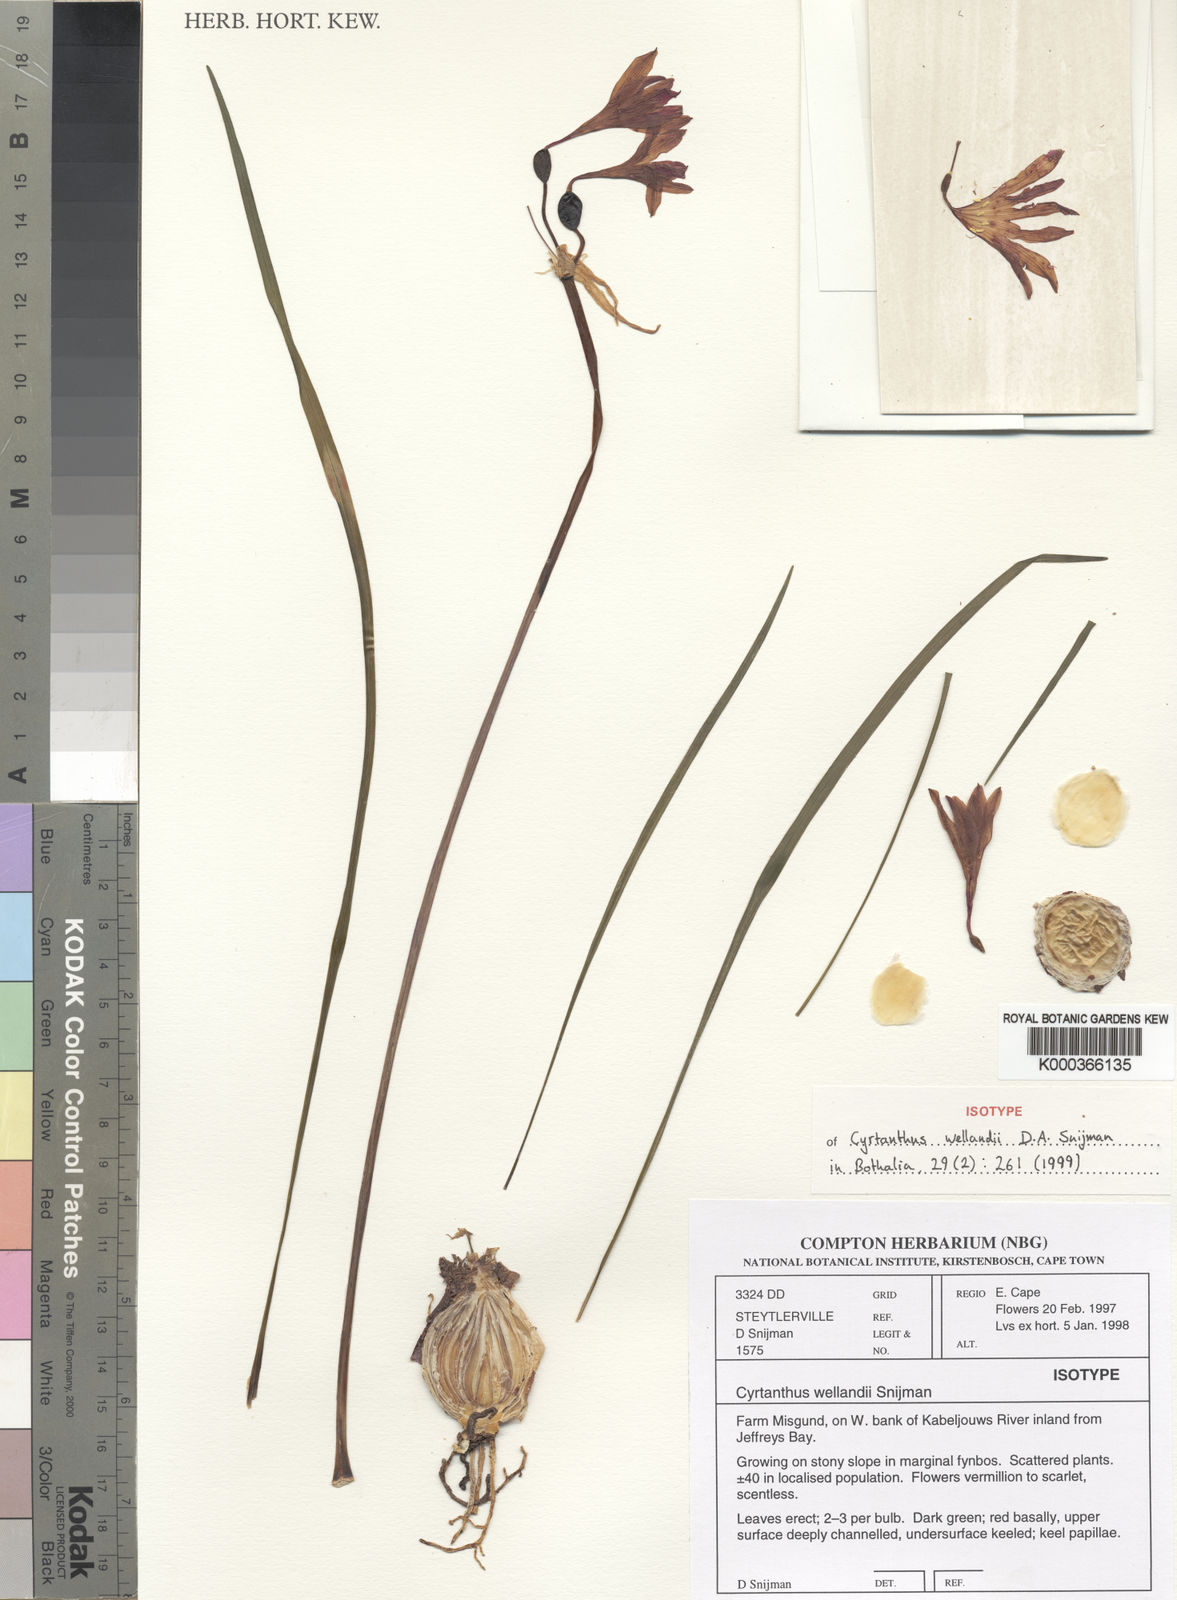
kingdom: Plantae
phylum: Tracheophyta
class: Liliopsida
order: Asparagales
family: Amaryllidaceae
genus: Cyrtanthus
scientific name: Cyrtanthus wellandii
